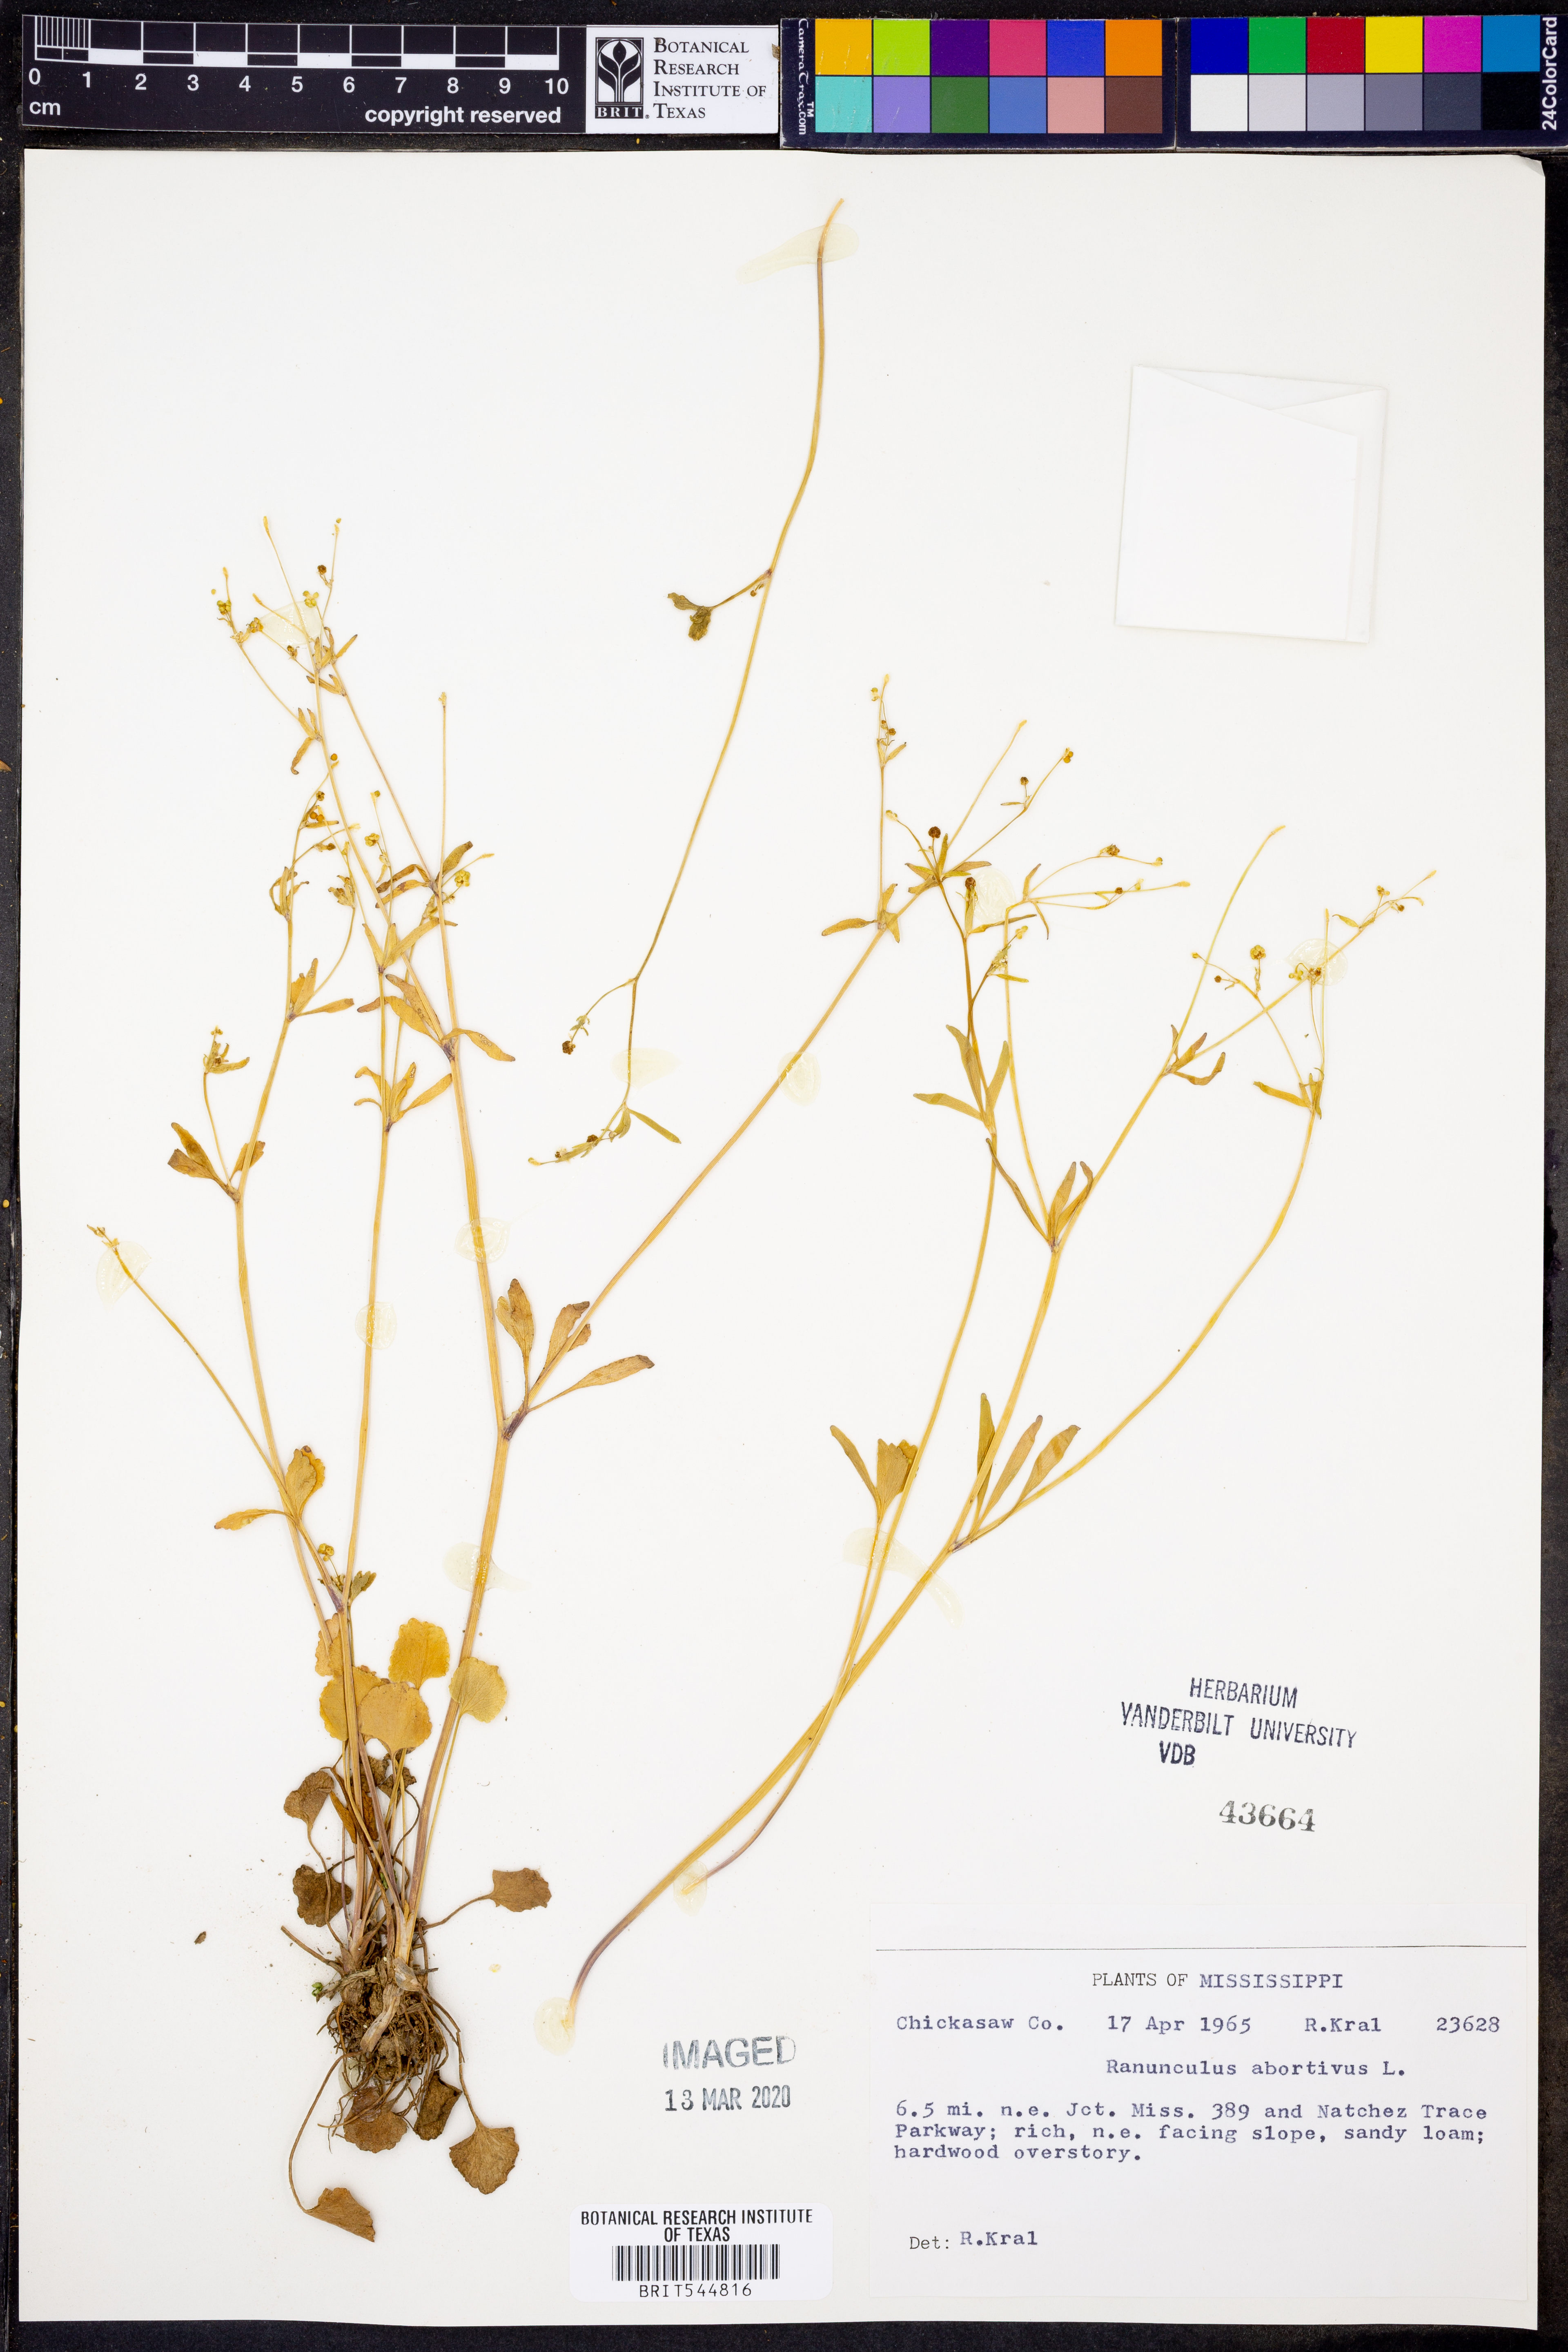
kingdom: Plantae
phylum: Tracheophyta
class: Magnoliopsida
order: Ranunculales
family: Ranunculaceae
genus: Ranunculus
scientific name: Ranunculus abortivus
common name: Early wood buttercup
